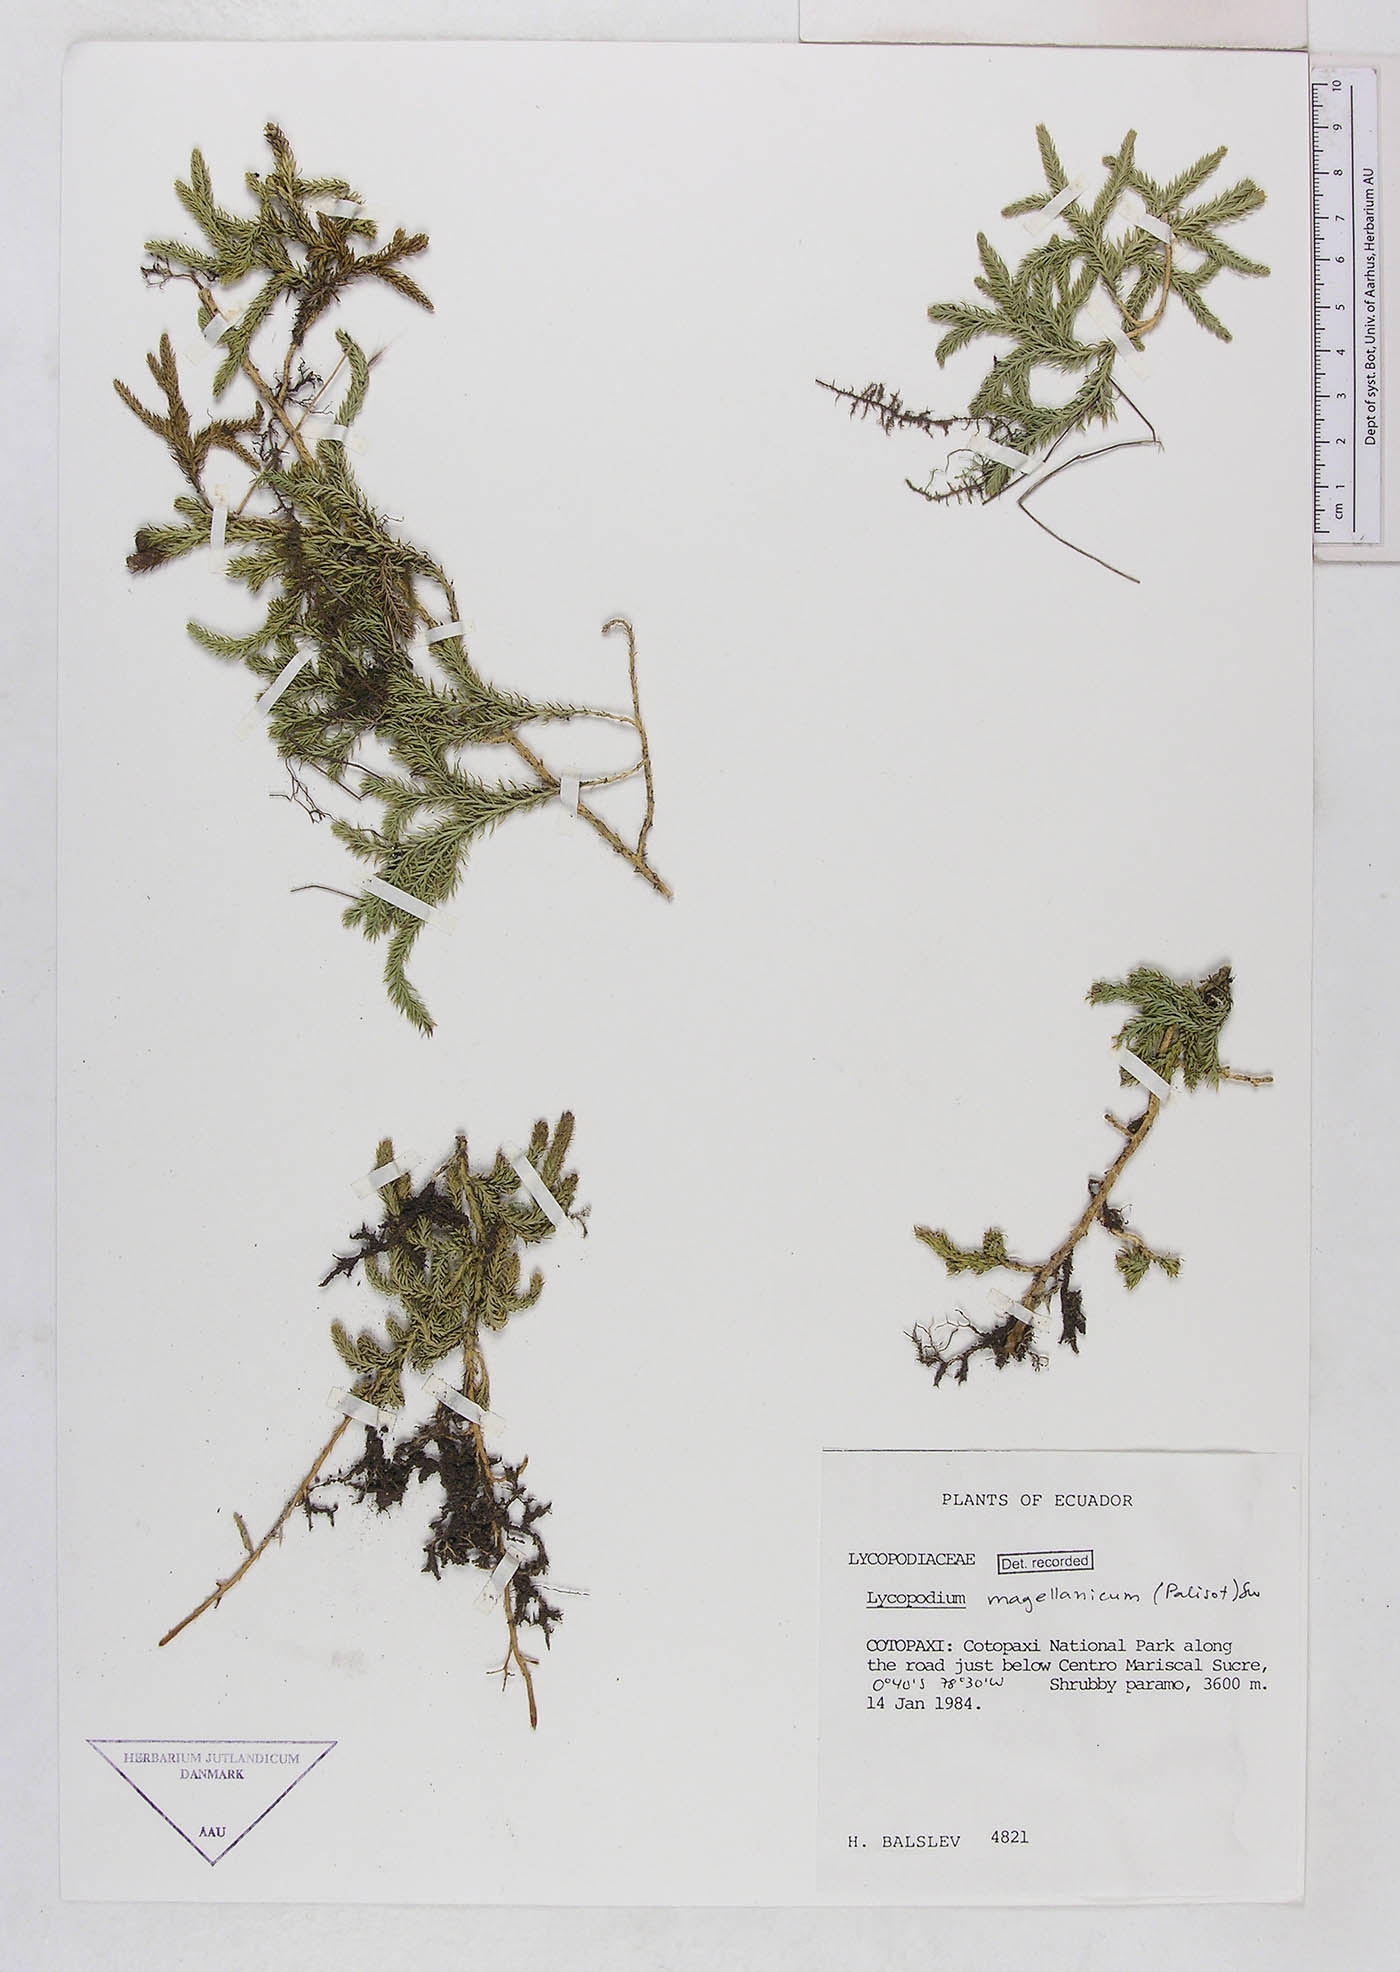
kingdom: Plantae
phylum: Tracheophyta
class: Lycopodiopsida
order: Lycopodiales
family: Lycopodiaceae
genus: Austrolycopodium
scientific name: Austrolycopodium magellanicum
